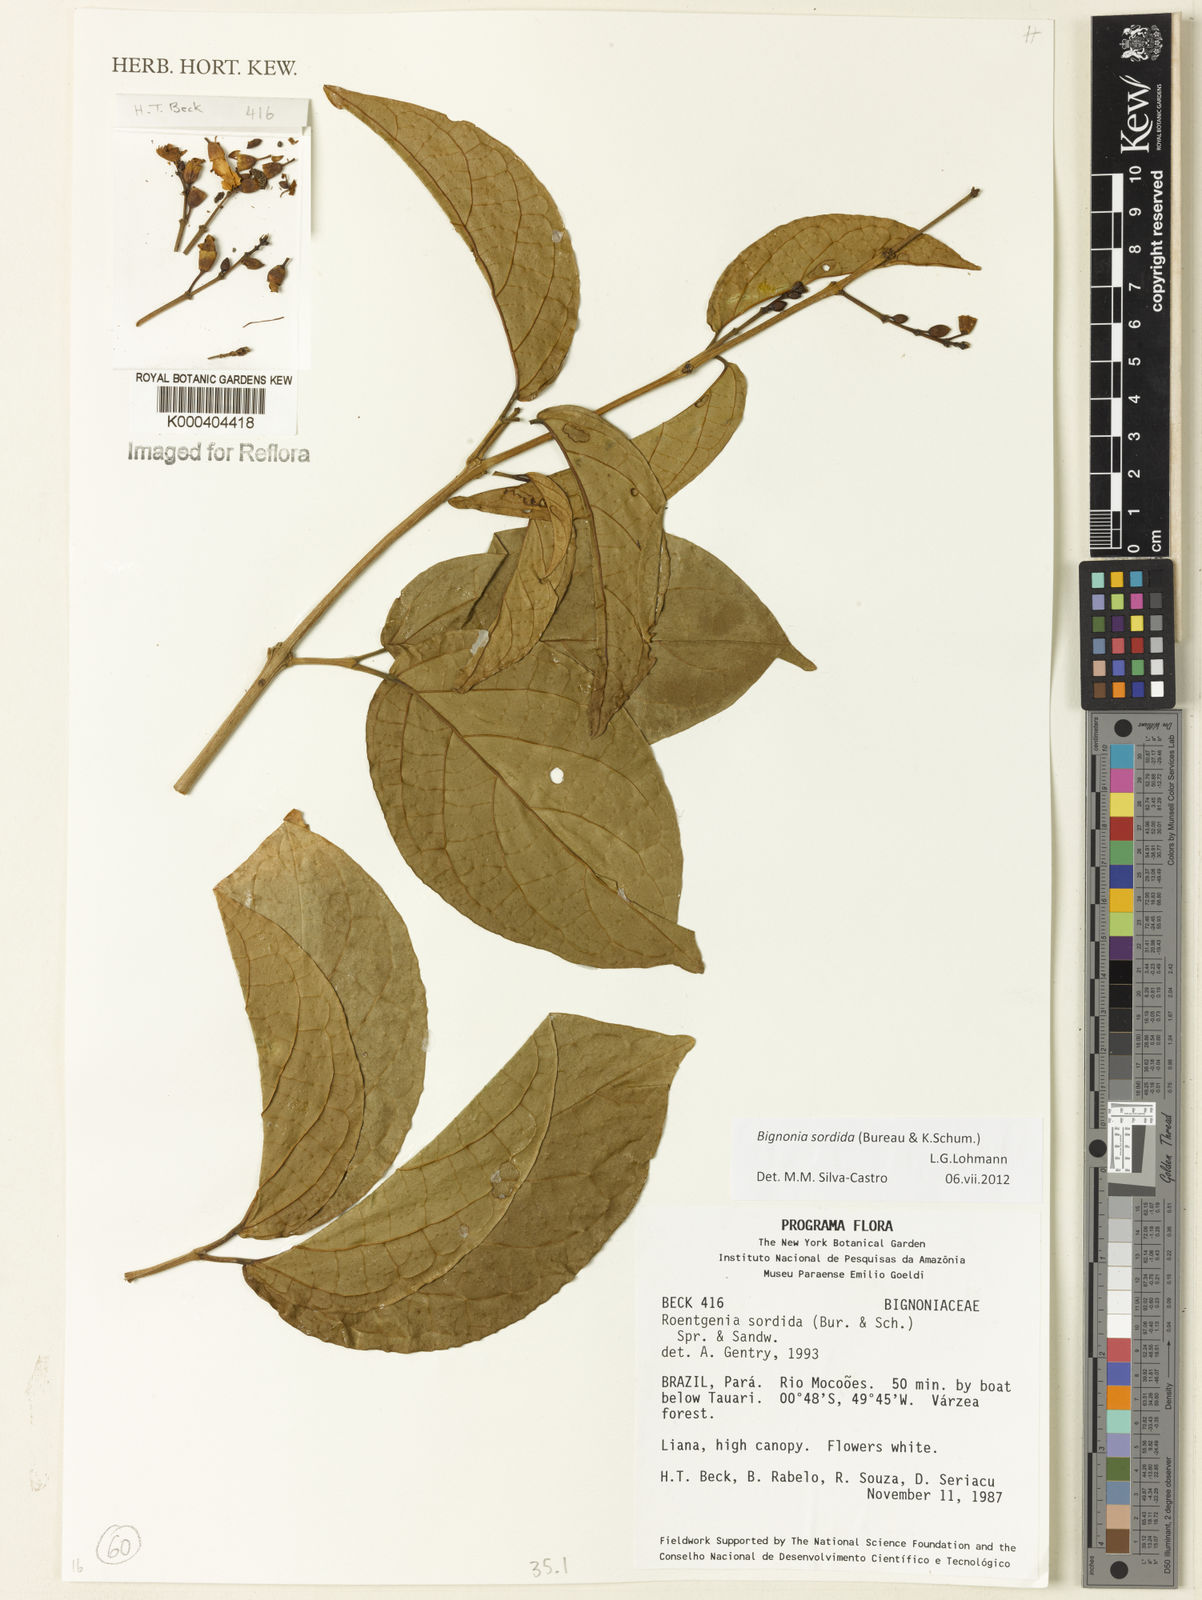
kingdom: Plantae
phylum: Tracheophyta
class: Magnoliopsida
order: Lamiales
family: Bignoniaceae
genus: Bignonia
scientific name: Bignonia sordida
